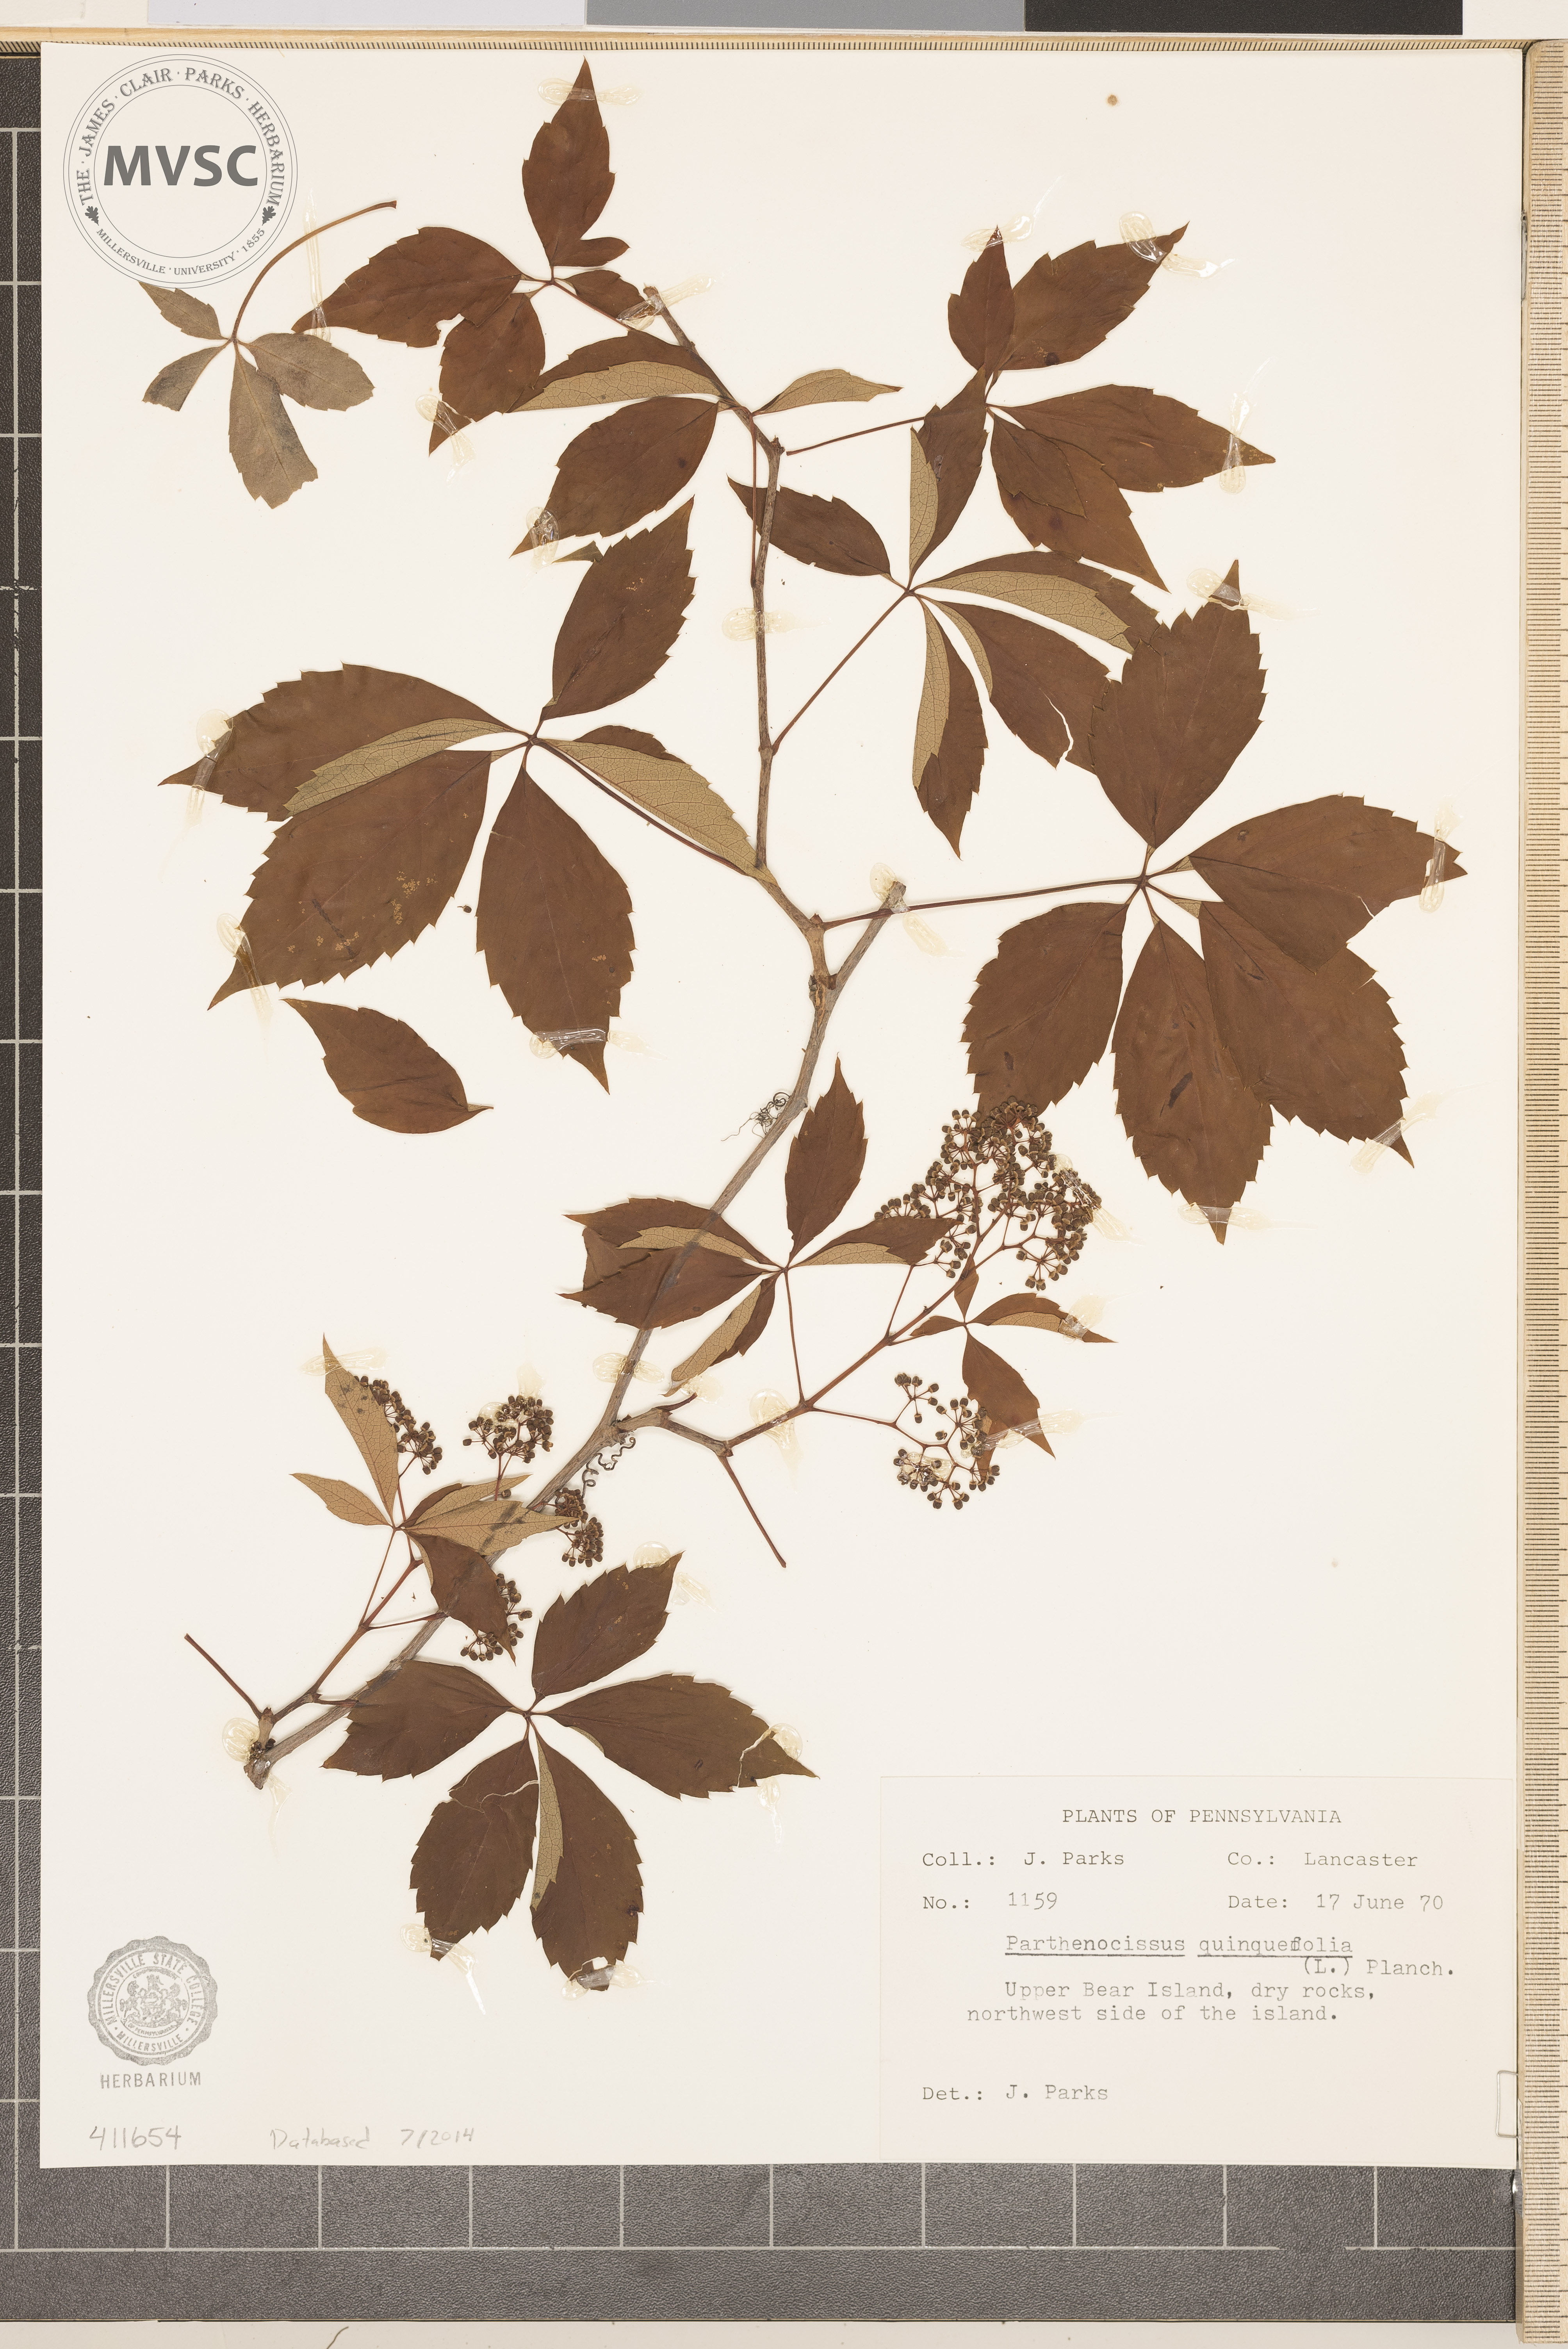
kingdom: Plantae
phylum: Tracheophyta
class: Magnoliopsida
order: Vitales
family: Vitaceae
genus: Parthenocissus
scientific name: Parthenocissus quinquefolia
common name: Virginia Creeper
